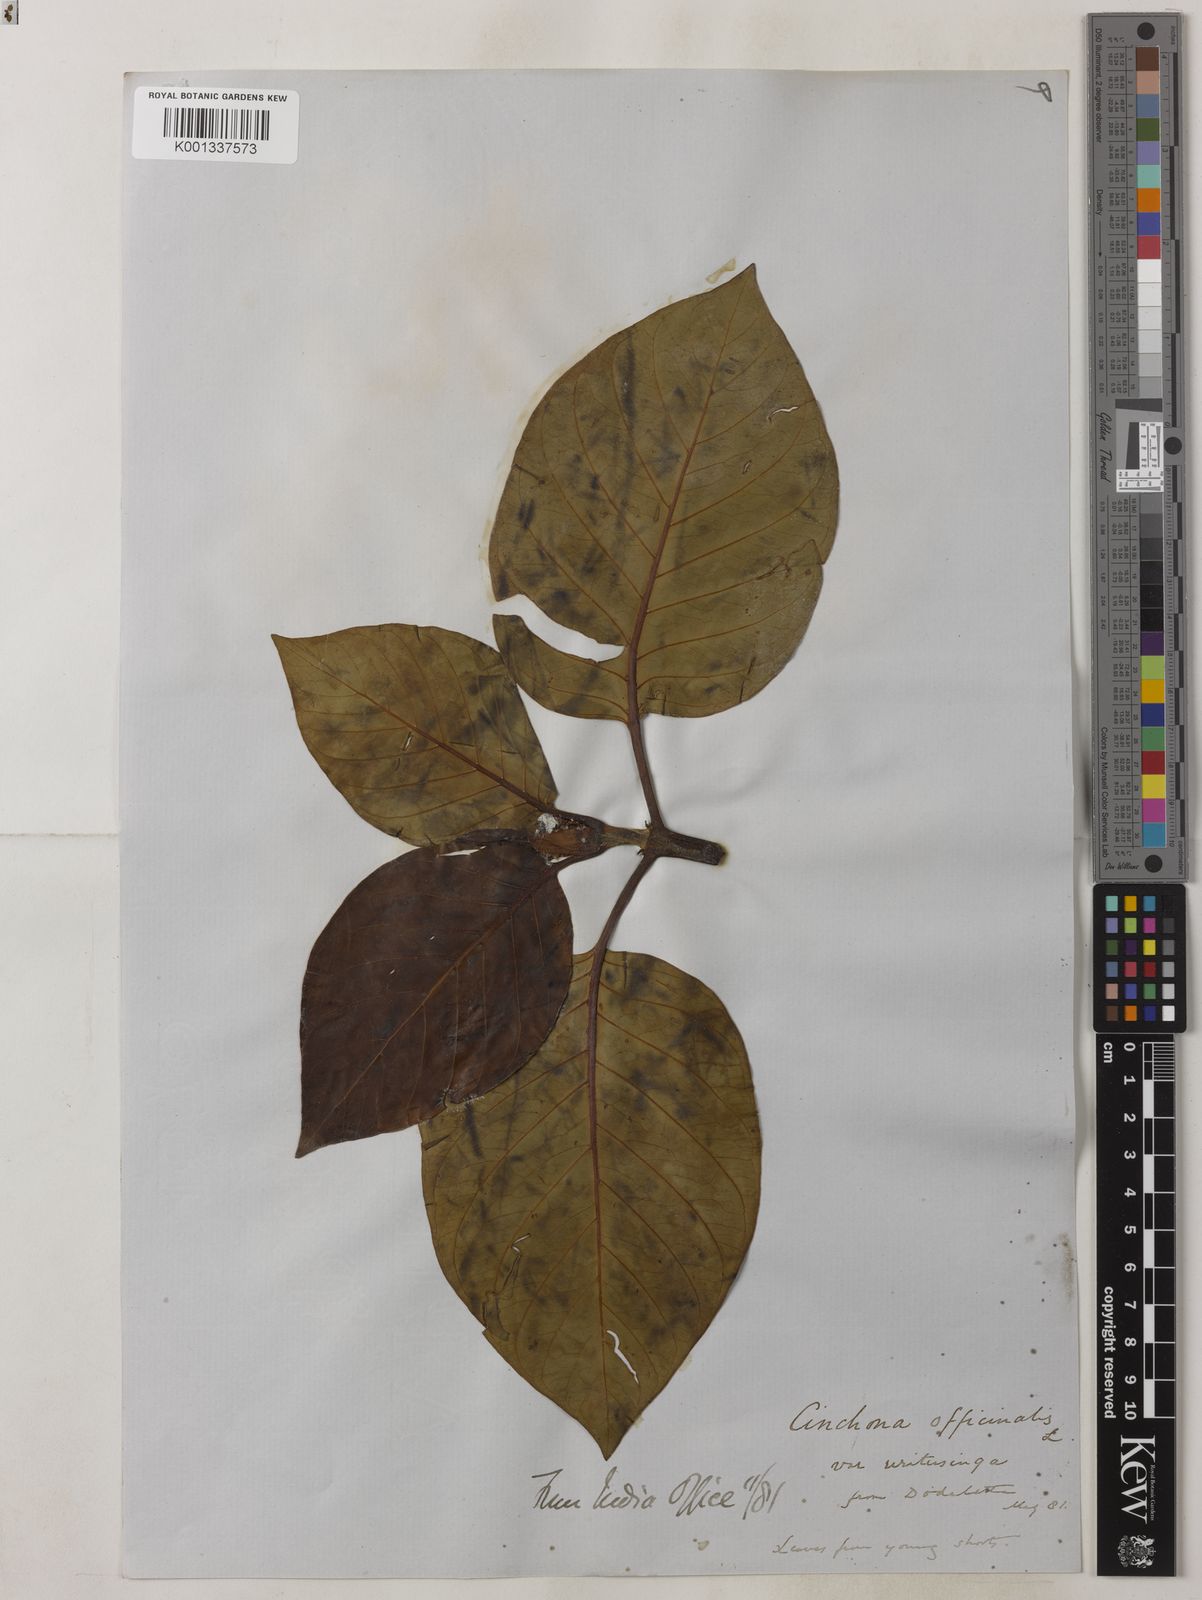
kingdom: Plantae
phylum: Tracheophyta
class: Magnoliopsida
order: Gentianales
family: Rubiaceae
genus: Cinchona
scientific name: Cinchona officinalis
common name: Lojabark
